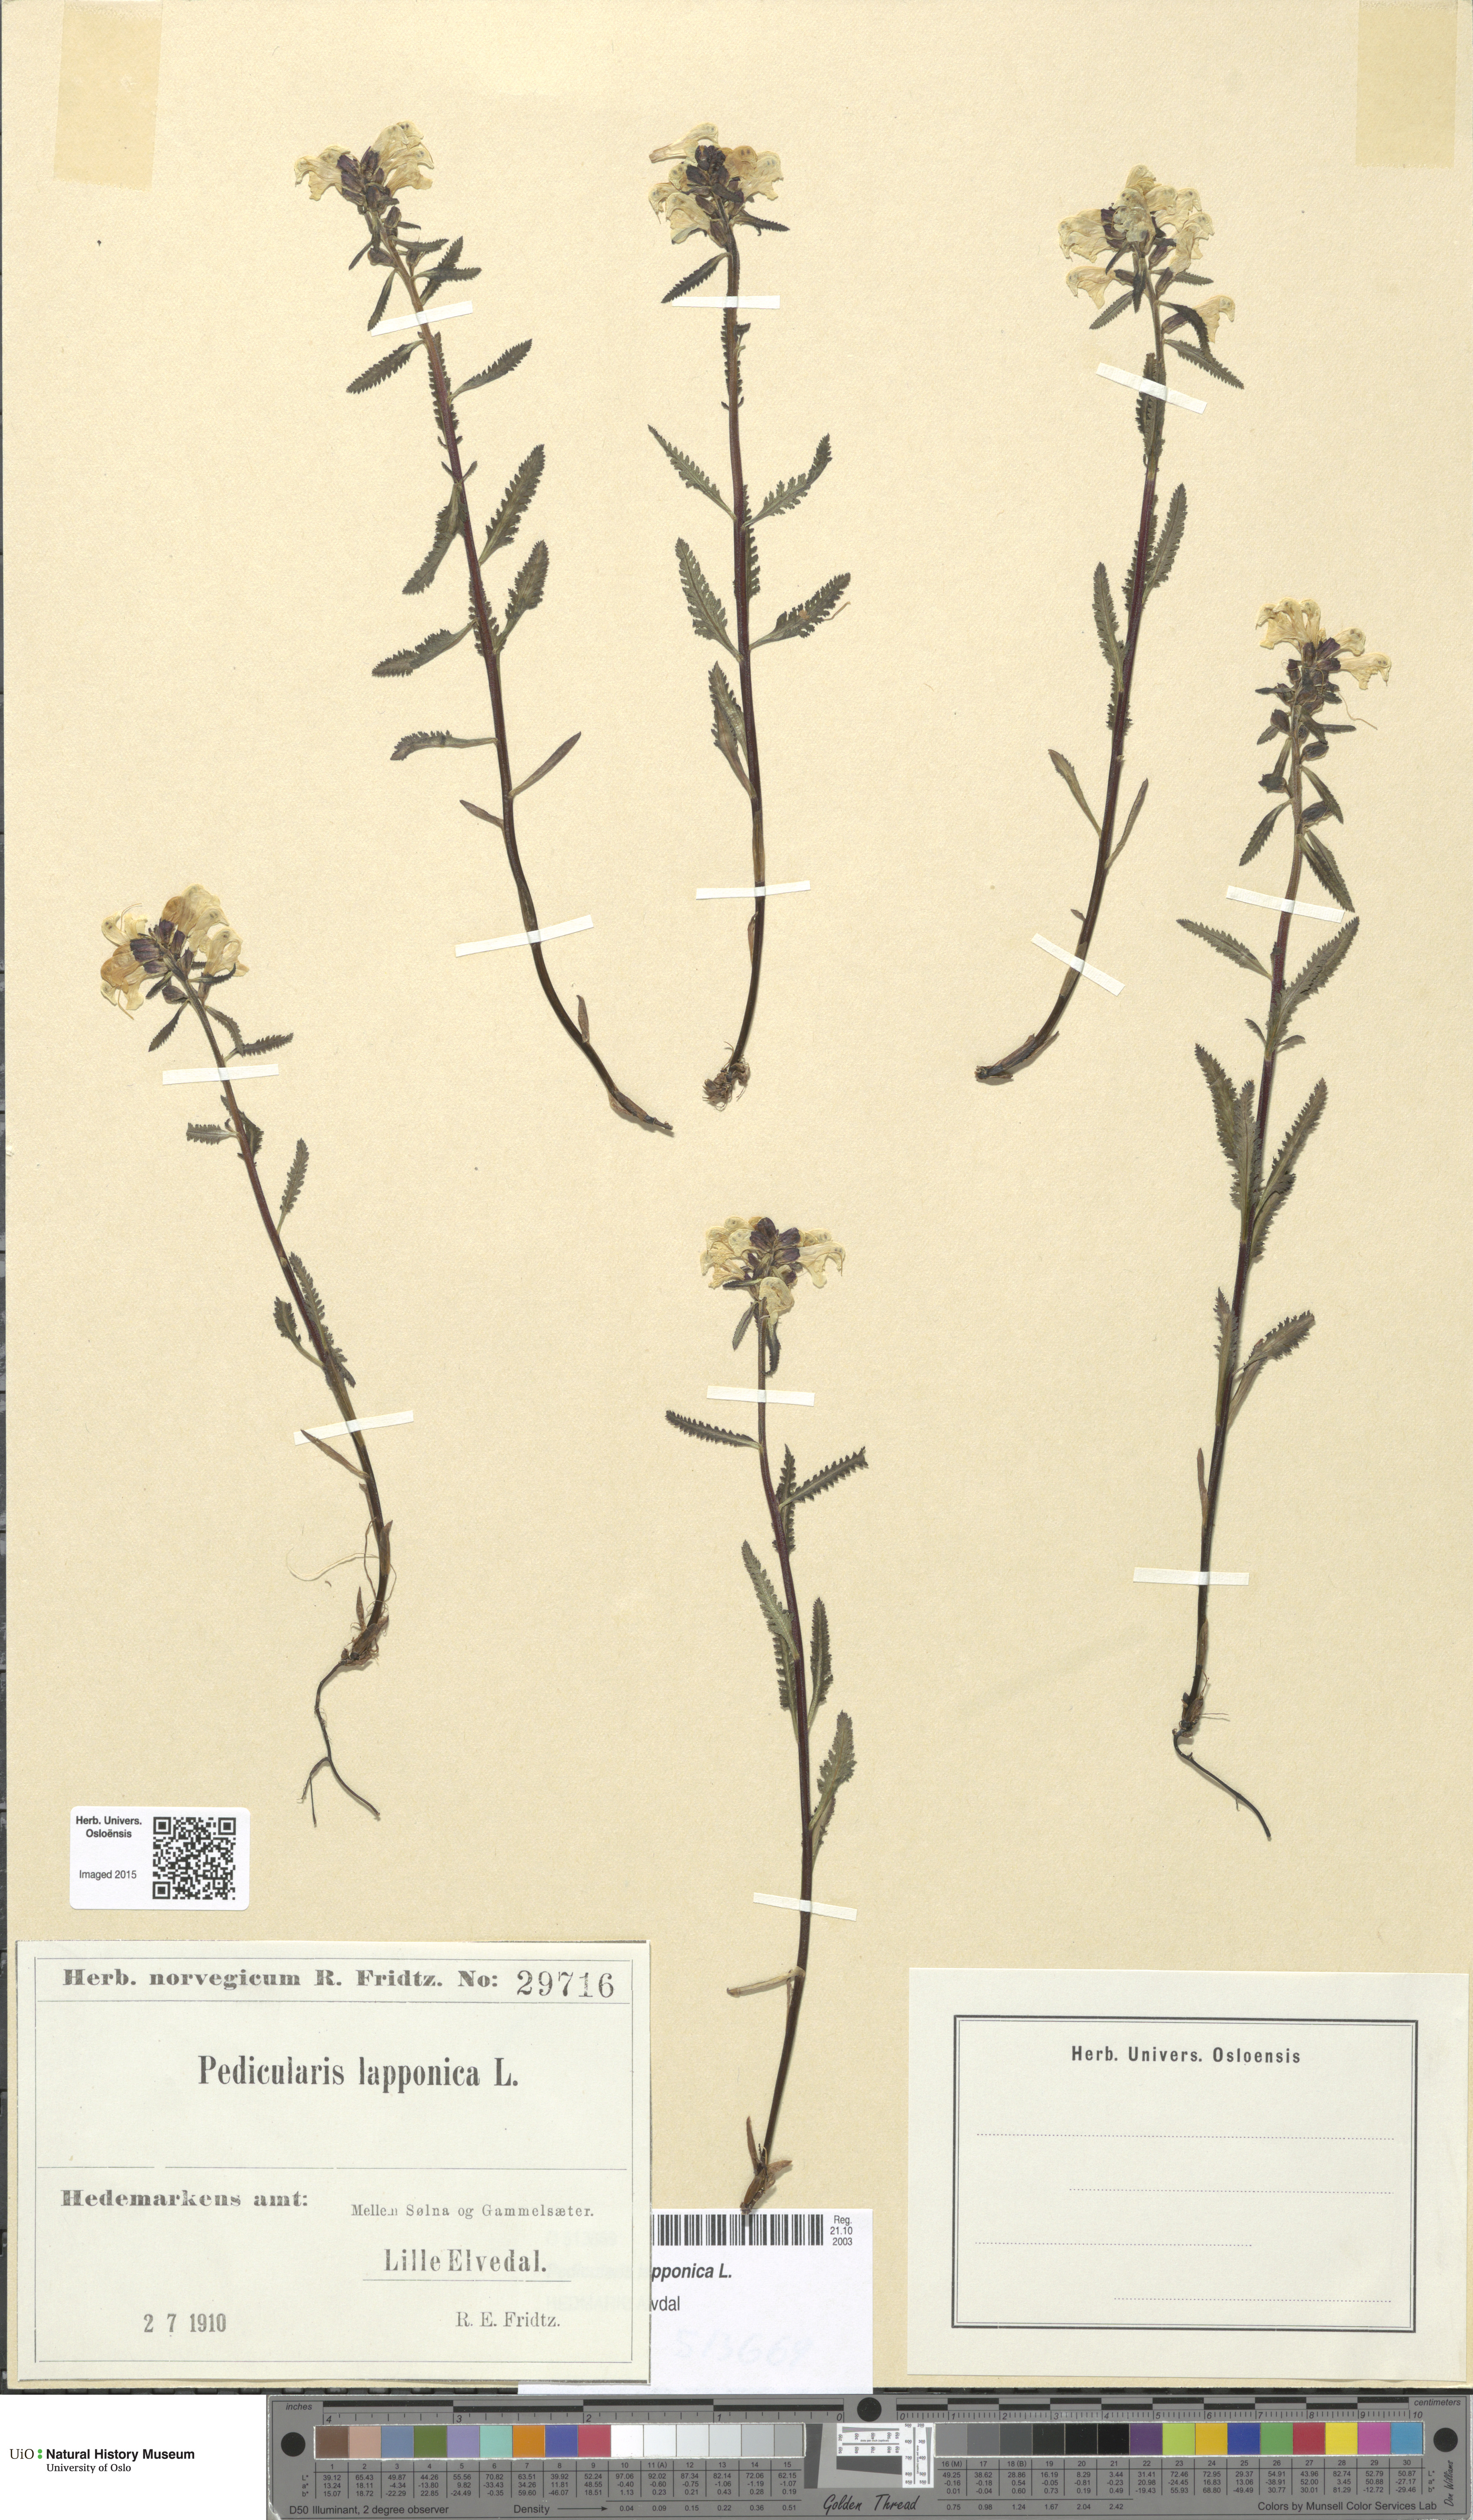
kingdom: Plantae
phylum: Tracheophyta
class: Magnoliopsida
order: Lamiales
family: Orobanchaceae
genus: Pedicularis
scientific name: Pedicularis lapponica
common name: Lapland lousewort
